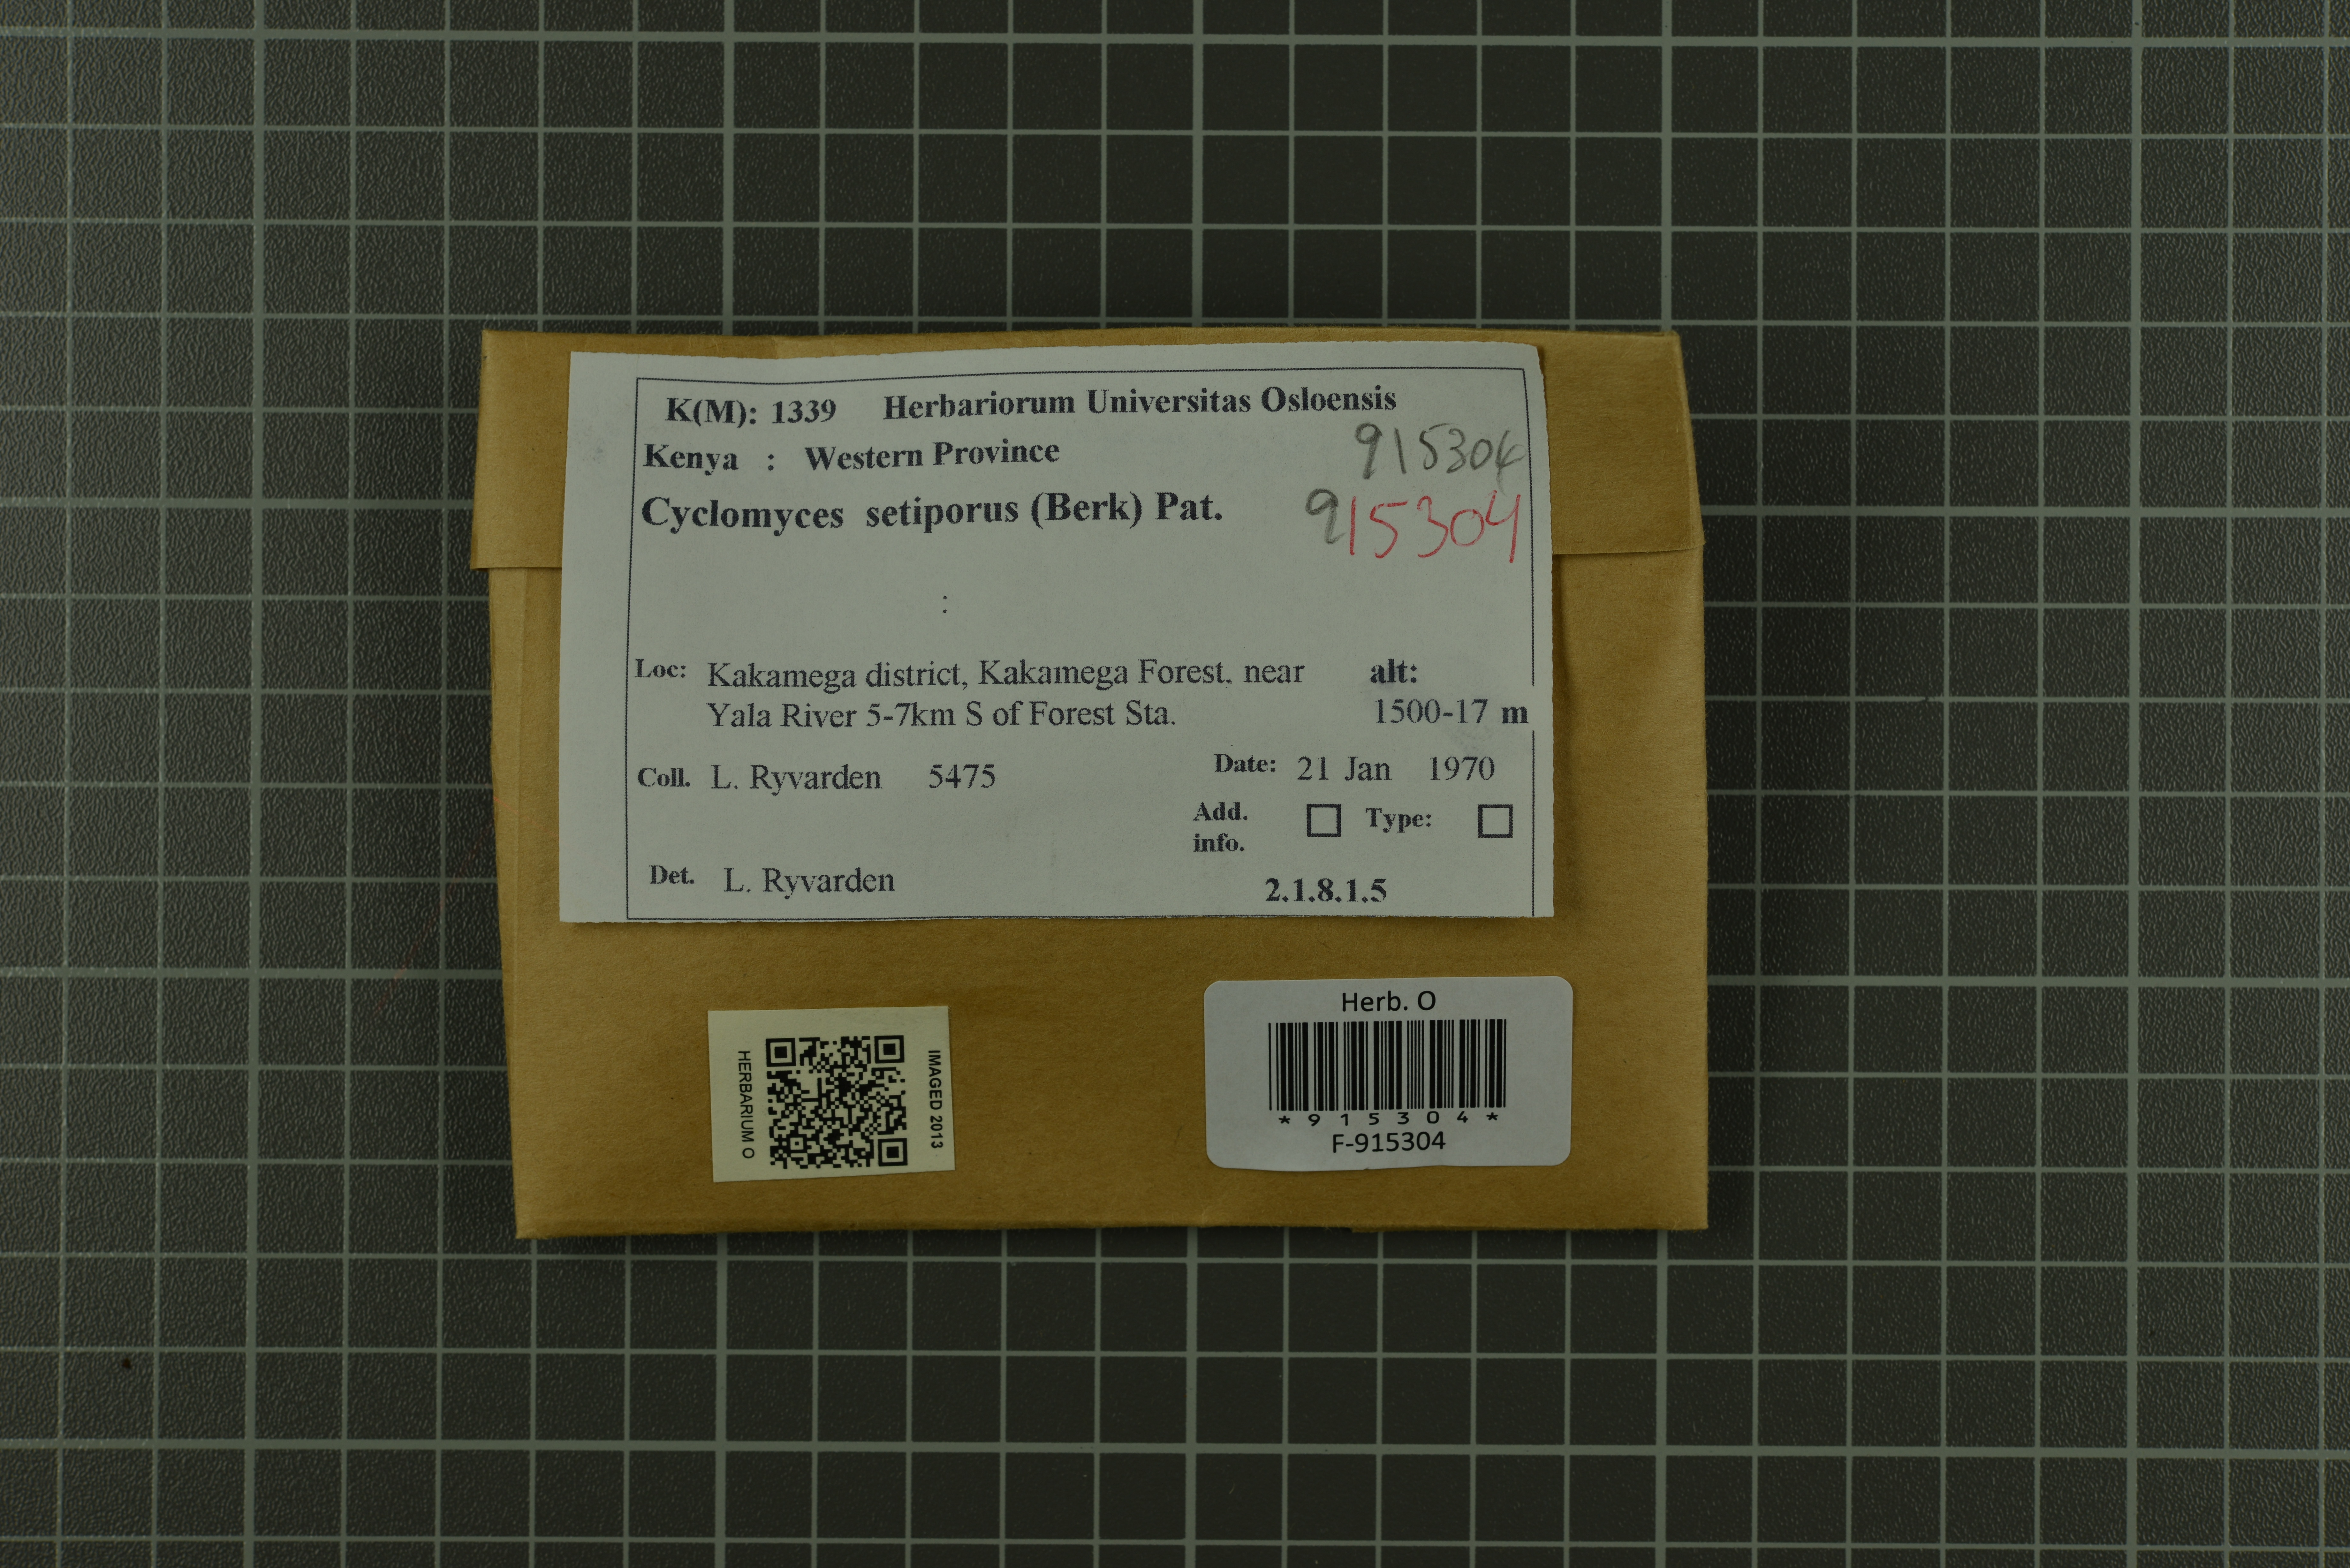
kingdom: Fungi
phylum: Basidiomycota
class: Agaricomycetes
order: Hymenochaetales
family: Hymenochaetaceae
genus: Cyclomyces
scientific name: Cyclomyces setiporus
